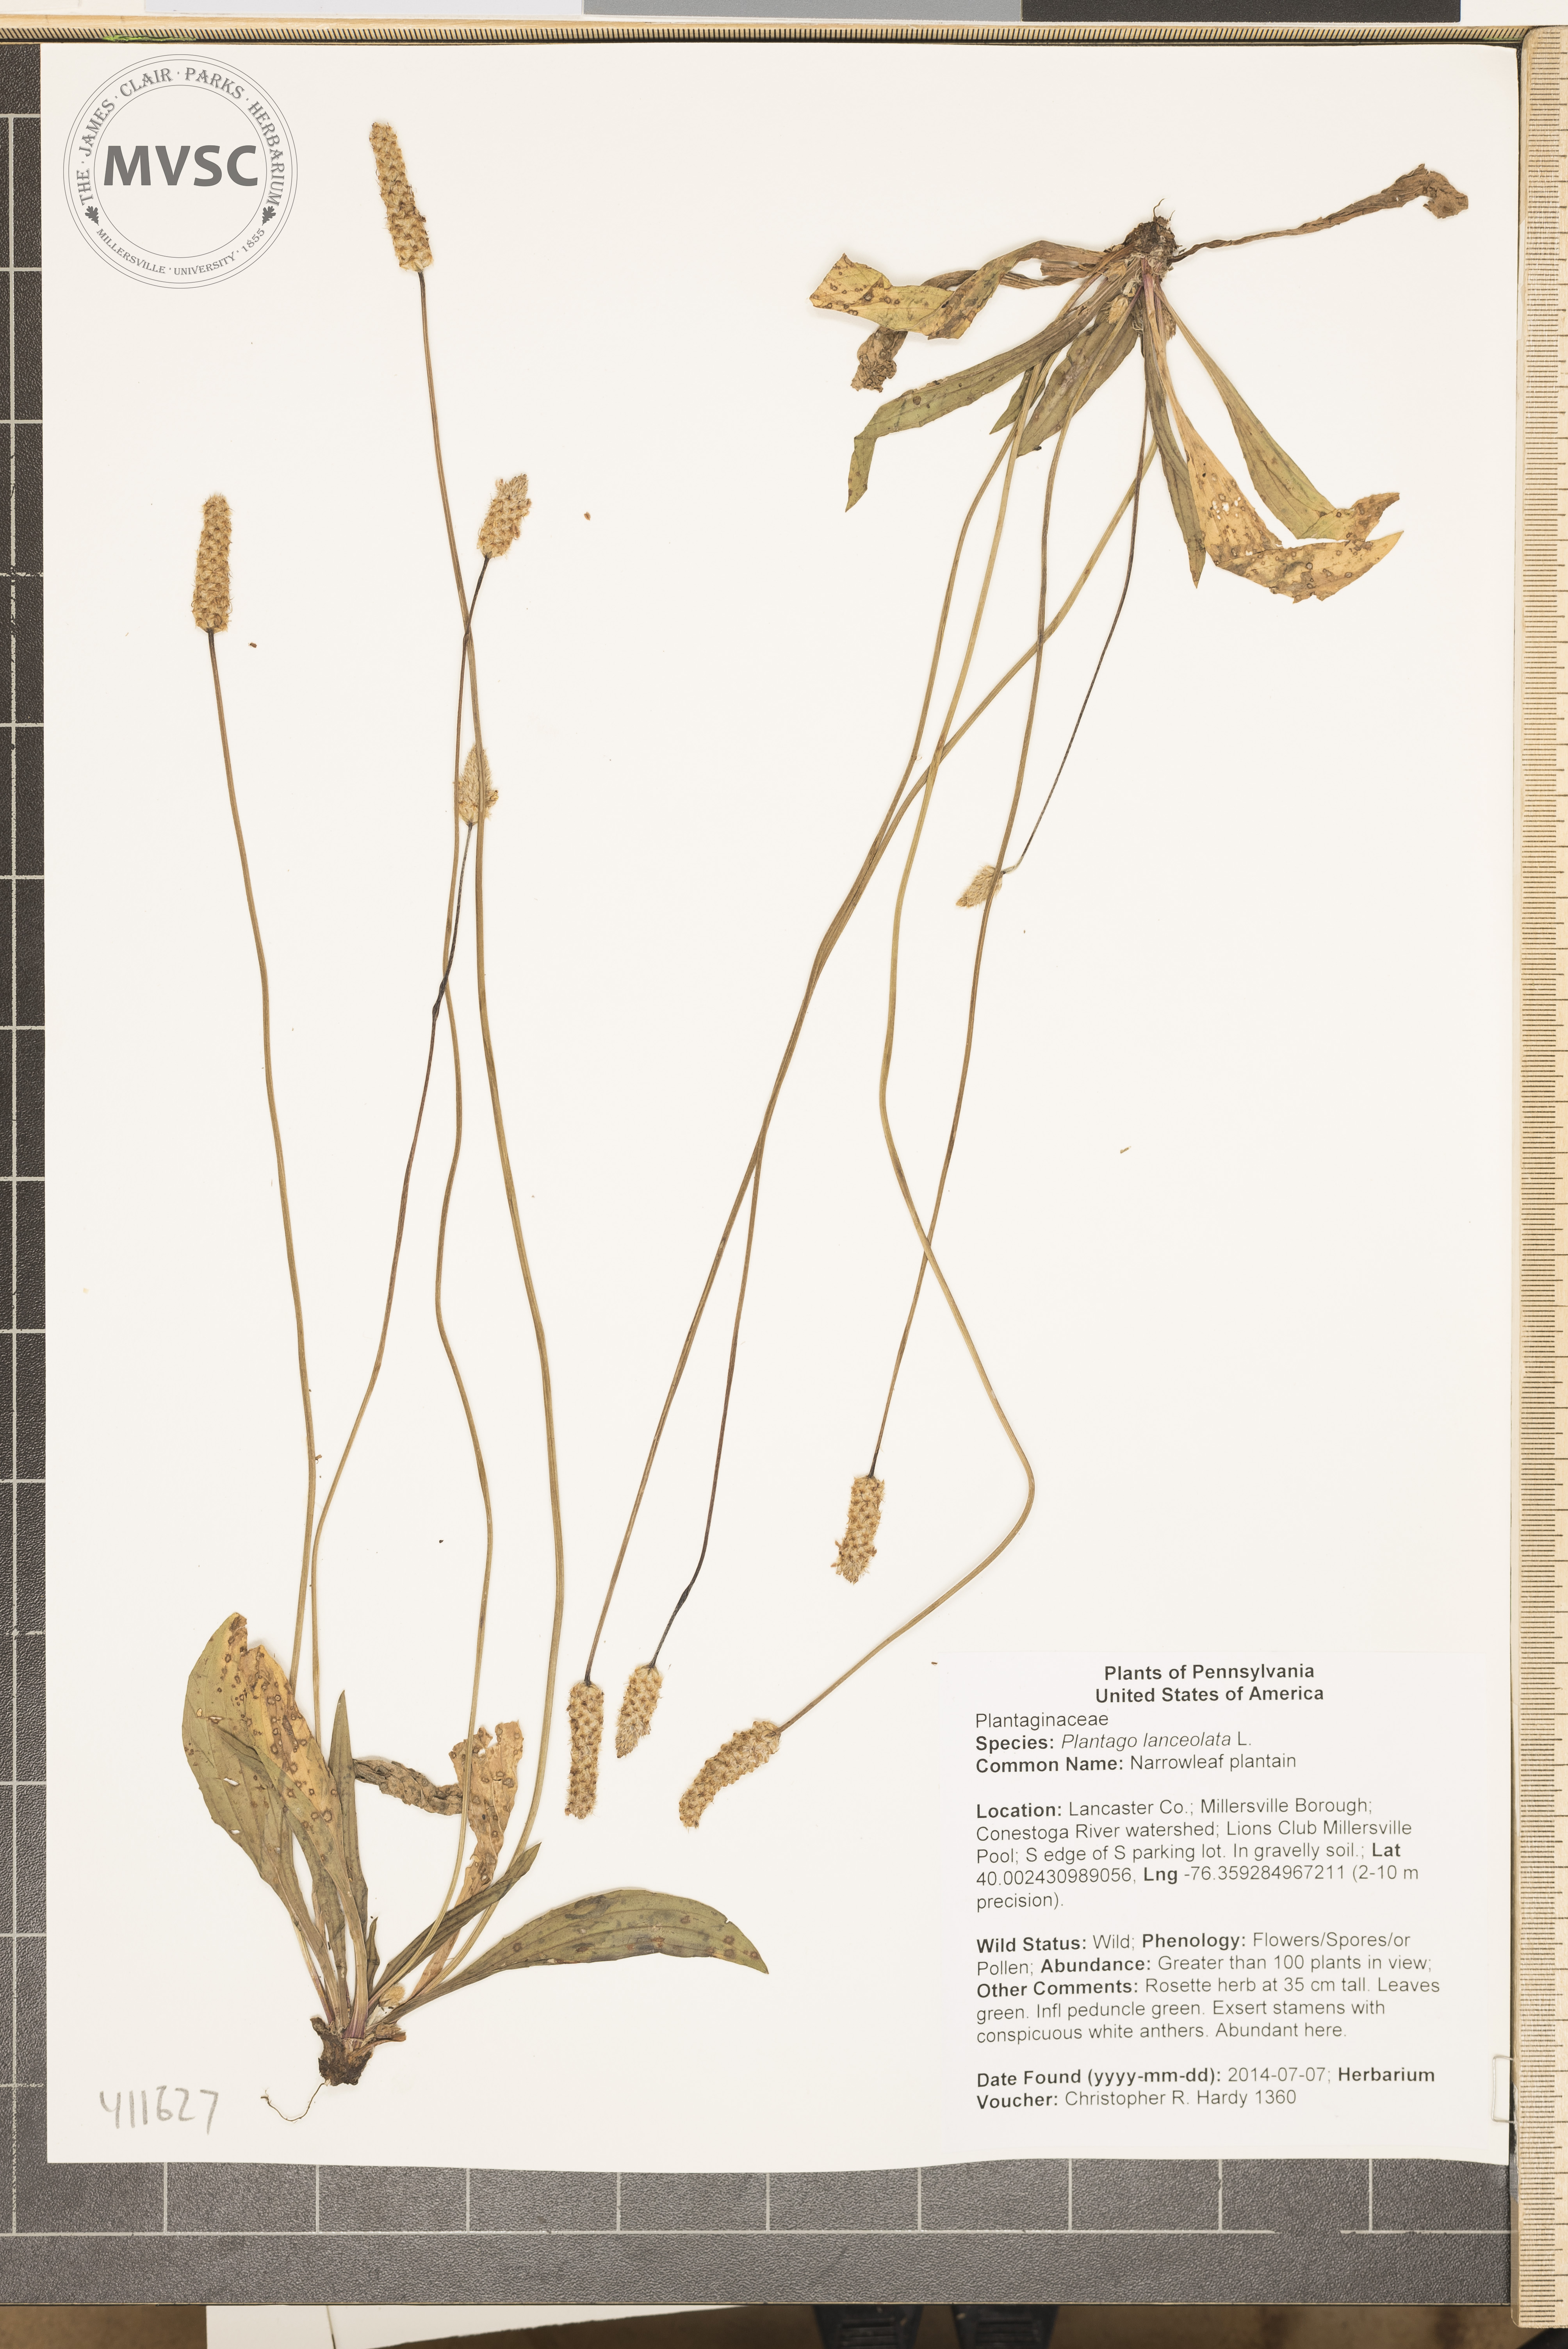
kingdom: Plantae
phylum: Tracheophyta
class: Magnoliopsida
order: Lamiales
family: Plantaginaceae
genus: Plantago
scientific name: Plantago lanceolata
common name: Narrowleaf plantain
